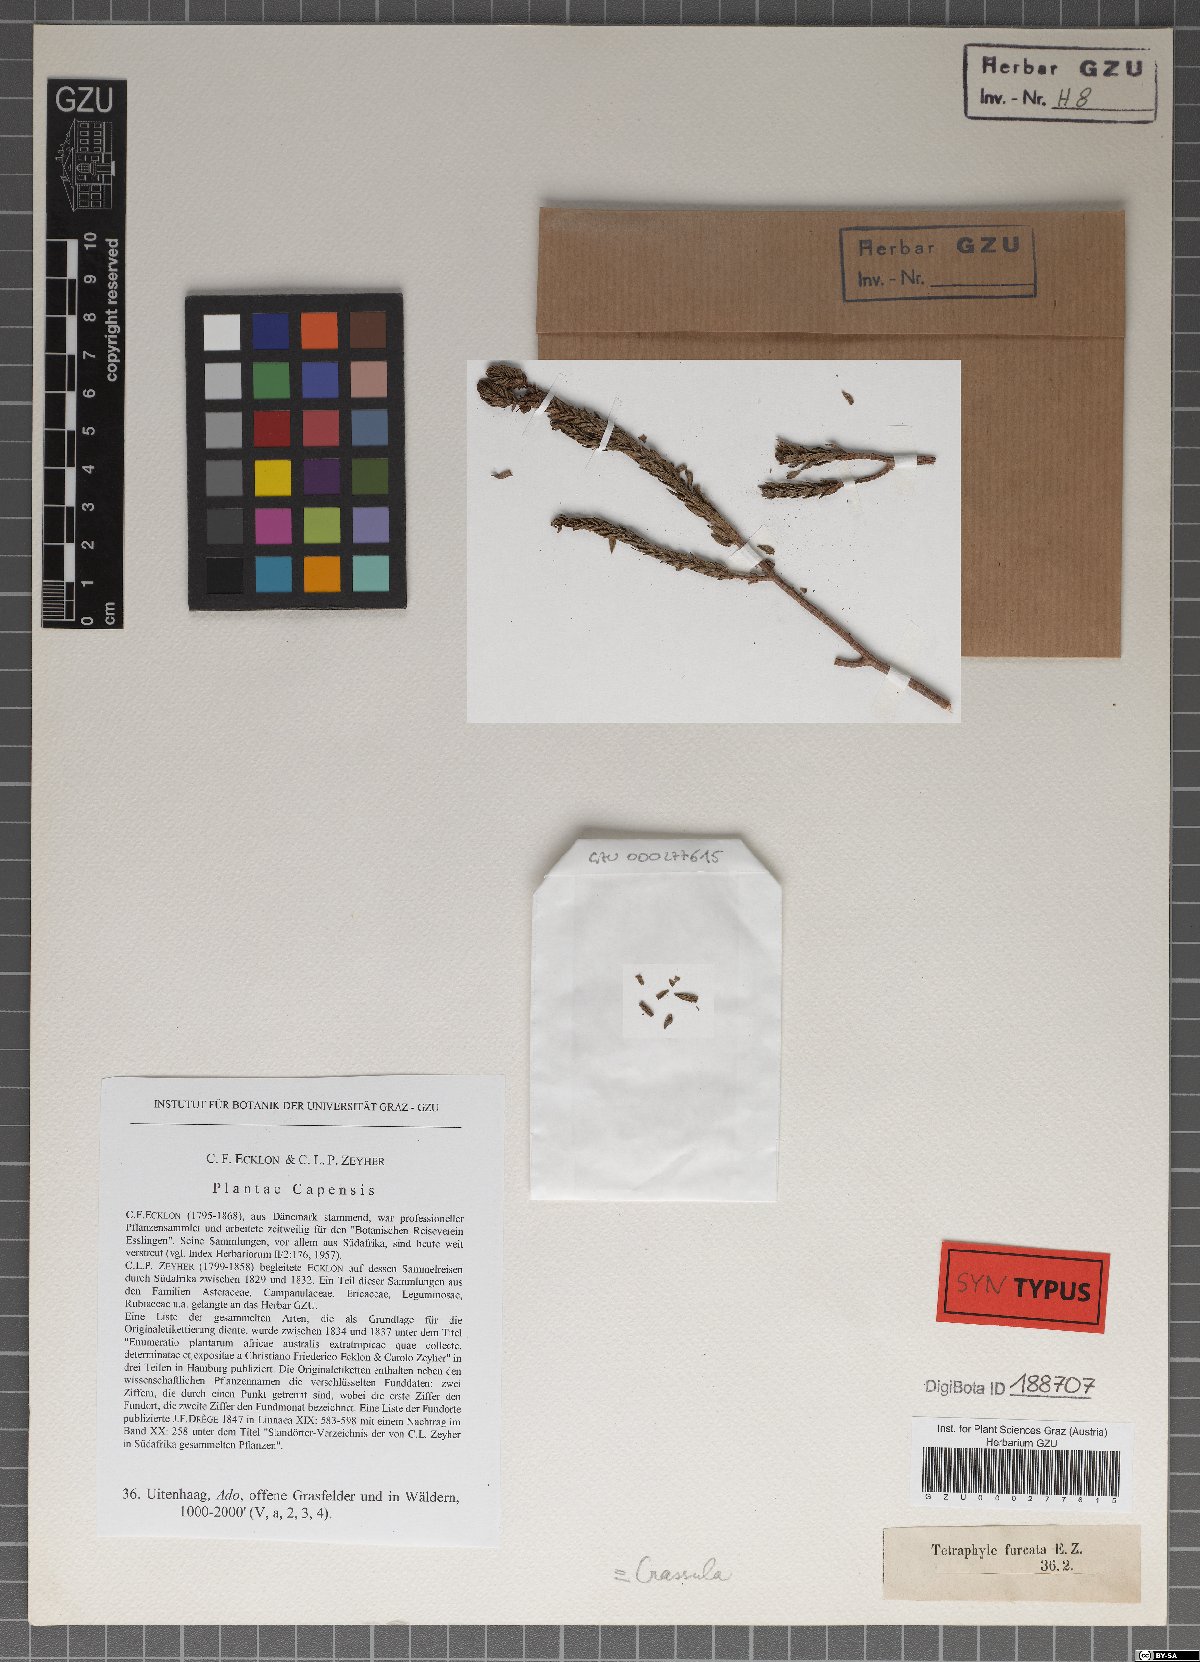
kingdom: Plantae
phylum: Tracheophyta
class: Magnoliopsida
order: Saxifragales
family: Crassulaceae
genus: Crassula
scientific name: Crassula ericoides
